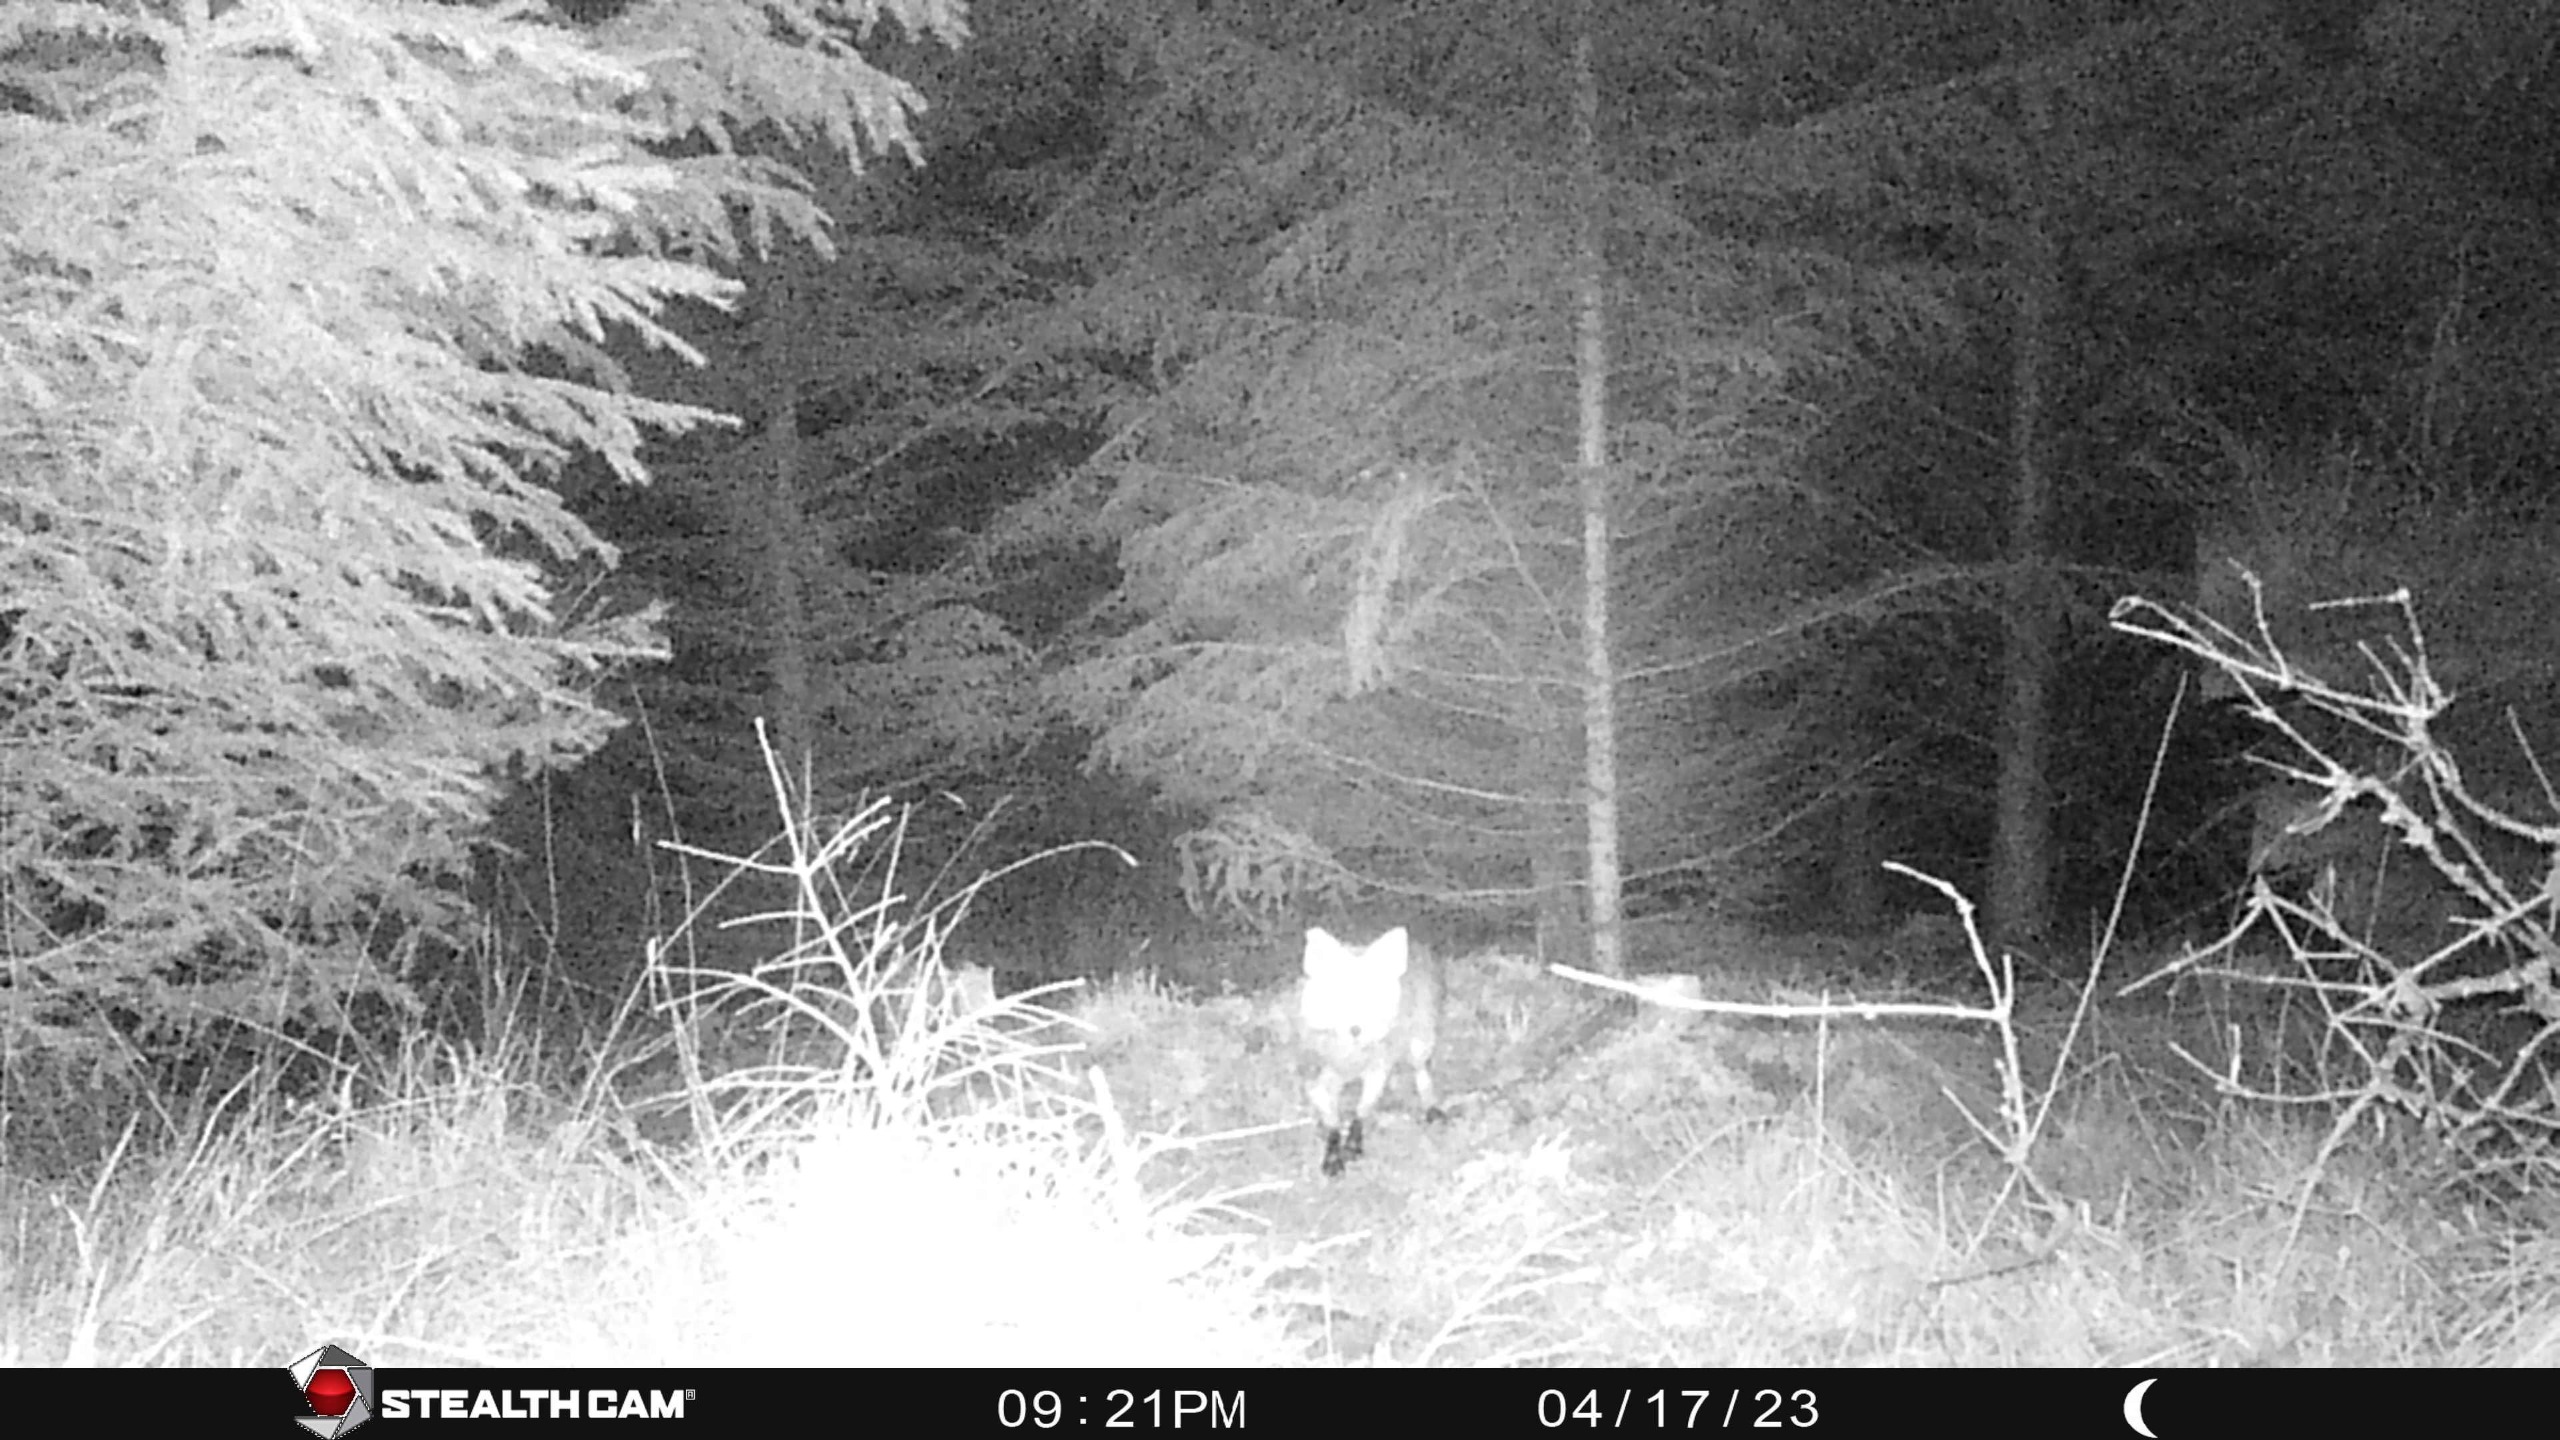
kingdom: Animalia
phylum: Chordata
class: Mammalia
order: Carnivora
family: Canidae
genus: Vulpes
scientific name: Vulpes vulpes
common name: Ræv
